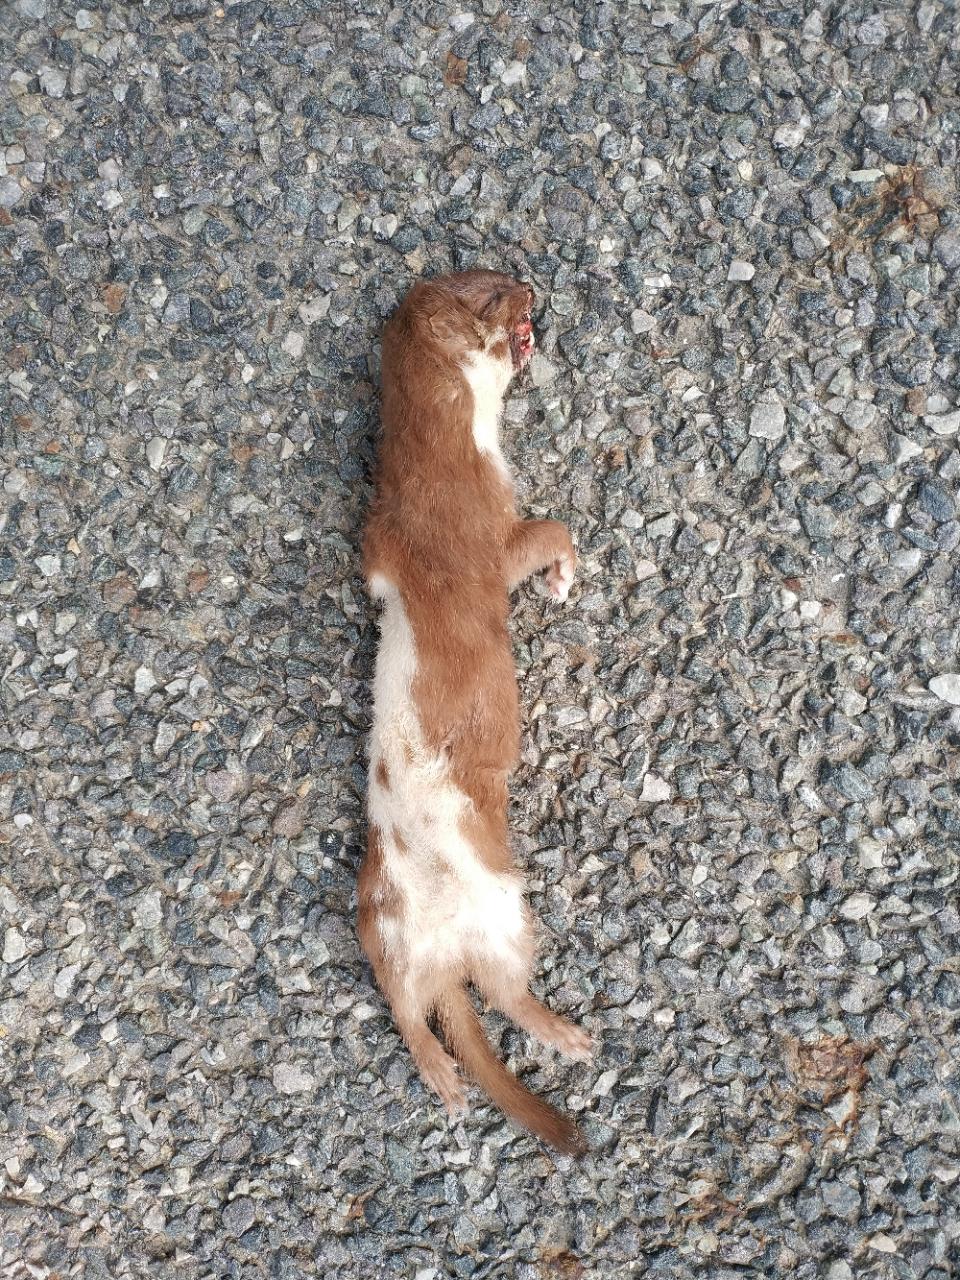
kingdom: Animalia
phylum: Chordata
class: Mammalia
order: Carnivora
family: Mustelidae
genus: Mustela
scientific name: Mustela nivalis
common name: Least weasel
